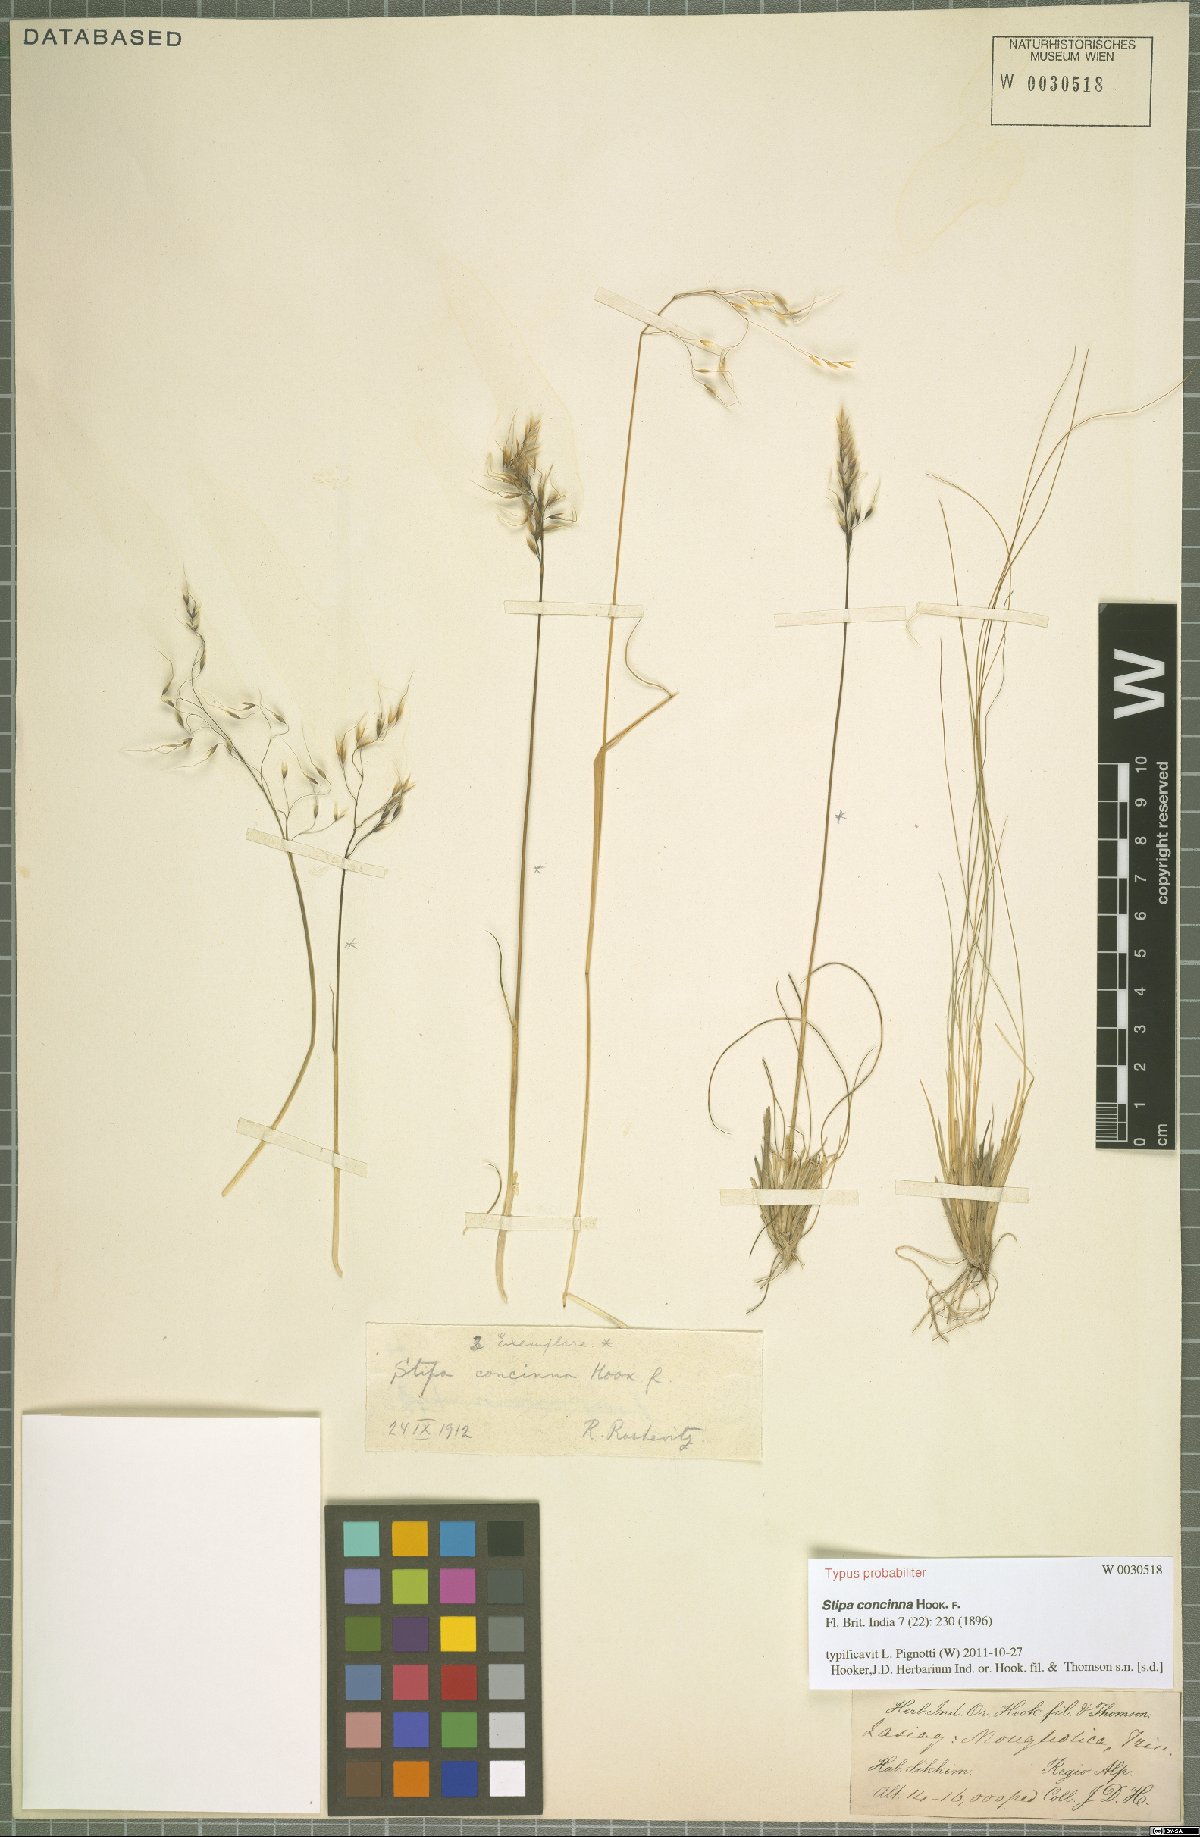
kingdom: Plantae
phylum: Tracheophyta
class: Liliopsida
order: Poales
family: Poaceae
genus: Ptilagrostis
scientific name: Ptilagrostis concinna
